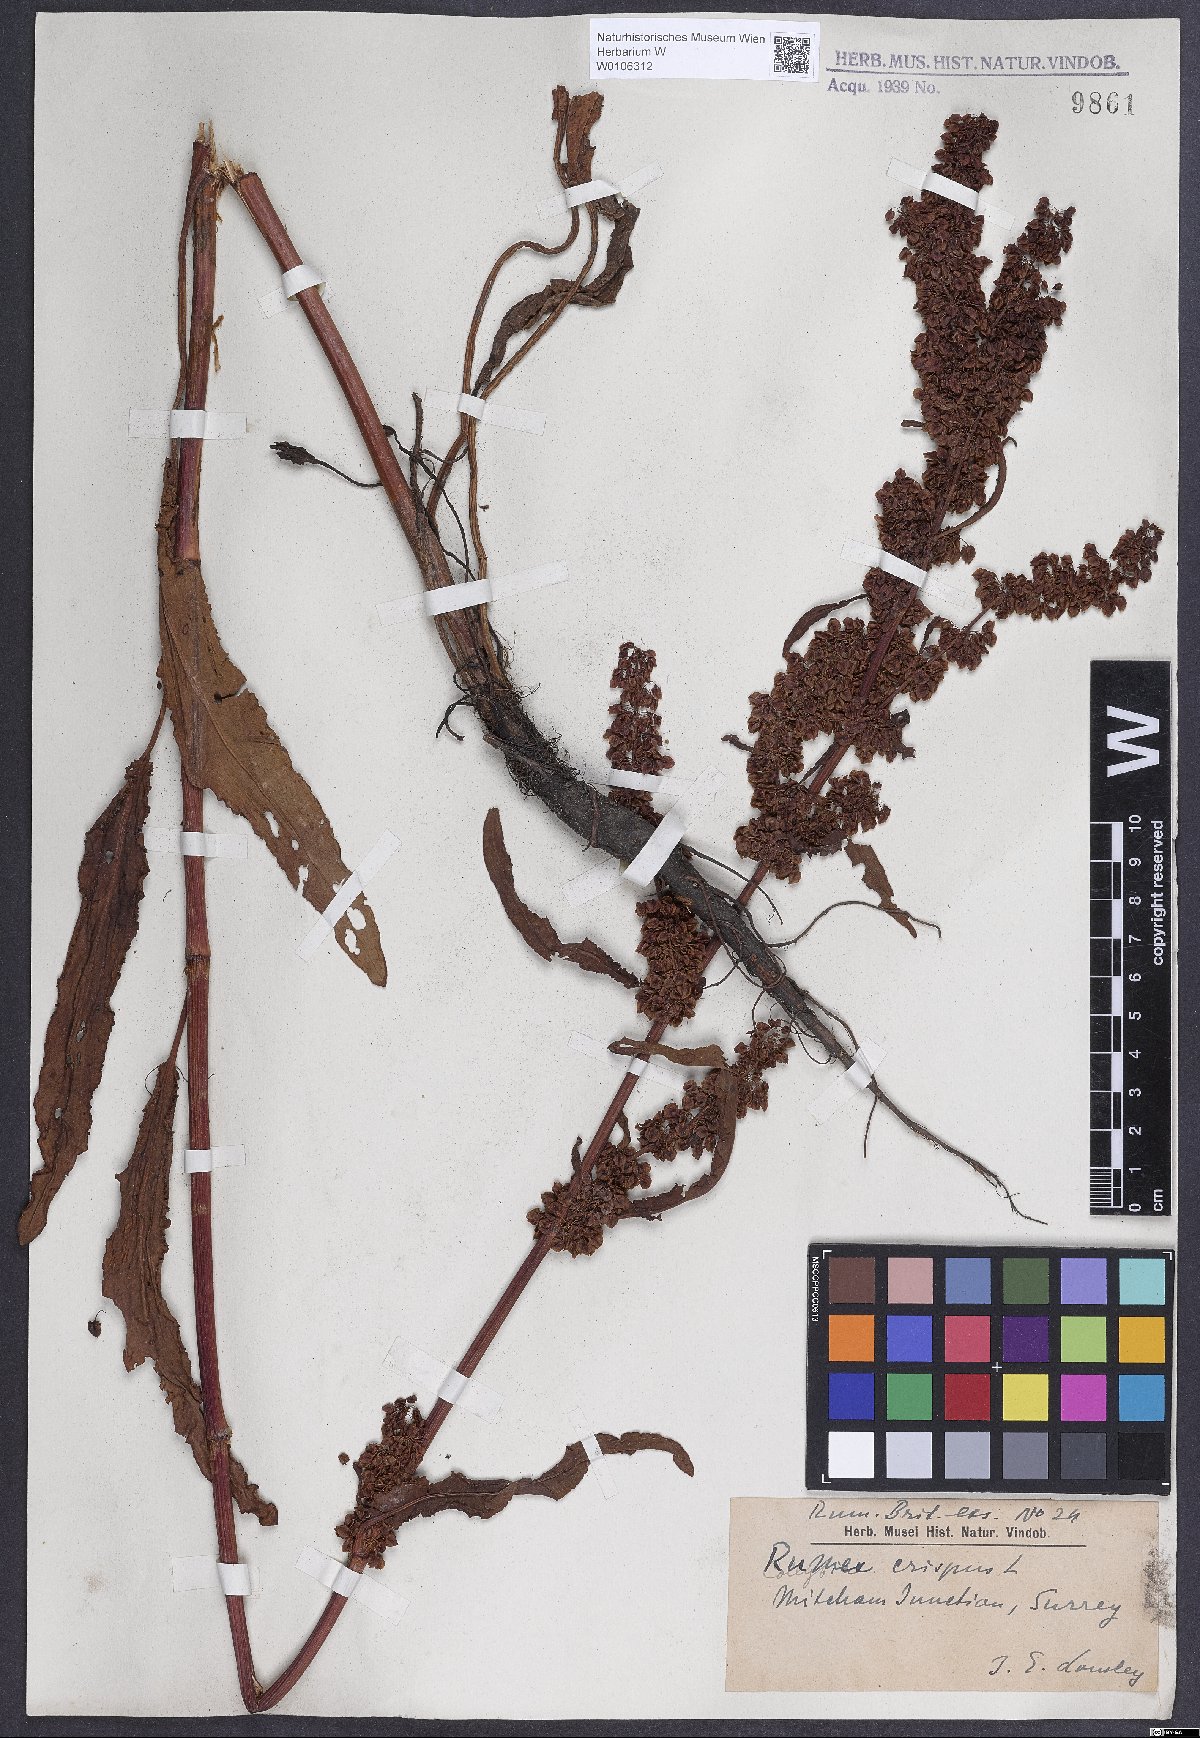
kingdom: Plantae
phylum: Tracheophyta
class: Magnoliopsida
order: Caryophyllales
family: Polygonaceae
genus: Rumex
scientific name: Rumex crispus
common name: Curled dock
